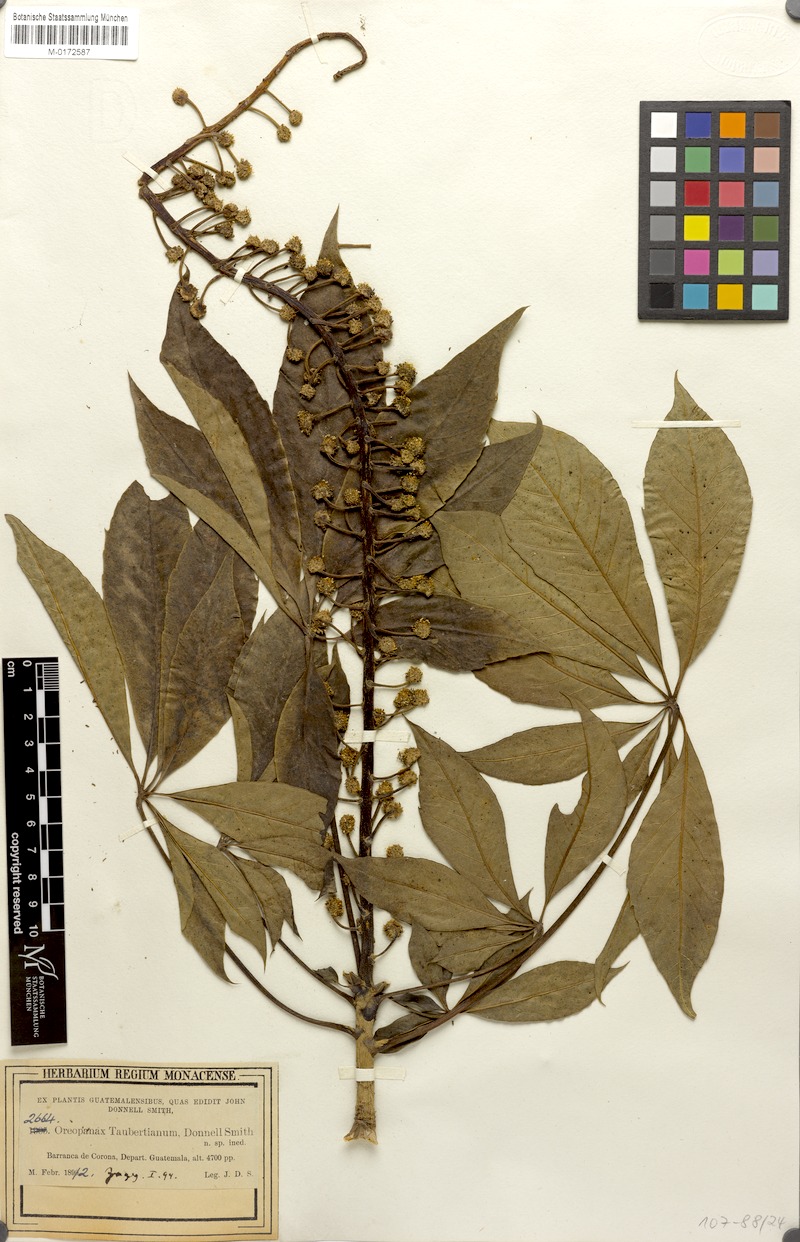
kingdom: Plantae
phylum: Tracheophyta
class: Magnoliopsida
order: Apiales
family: Araliaceae
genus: Oreopanax
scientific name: Oreopanax xalapensis
